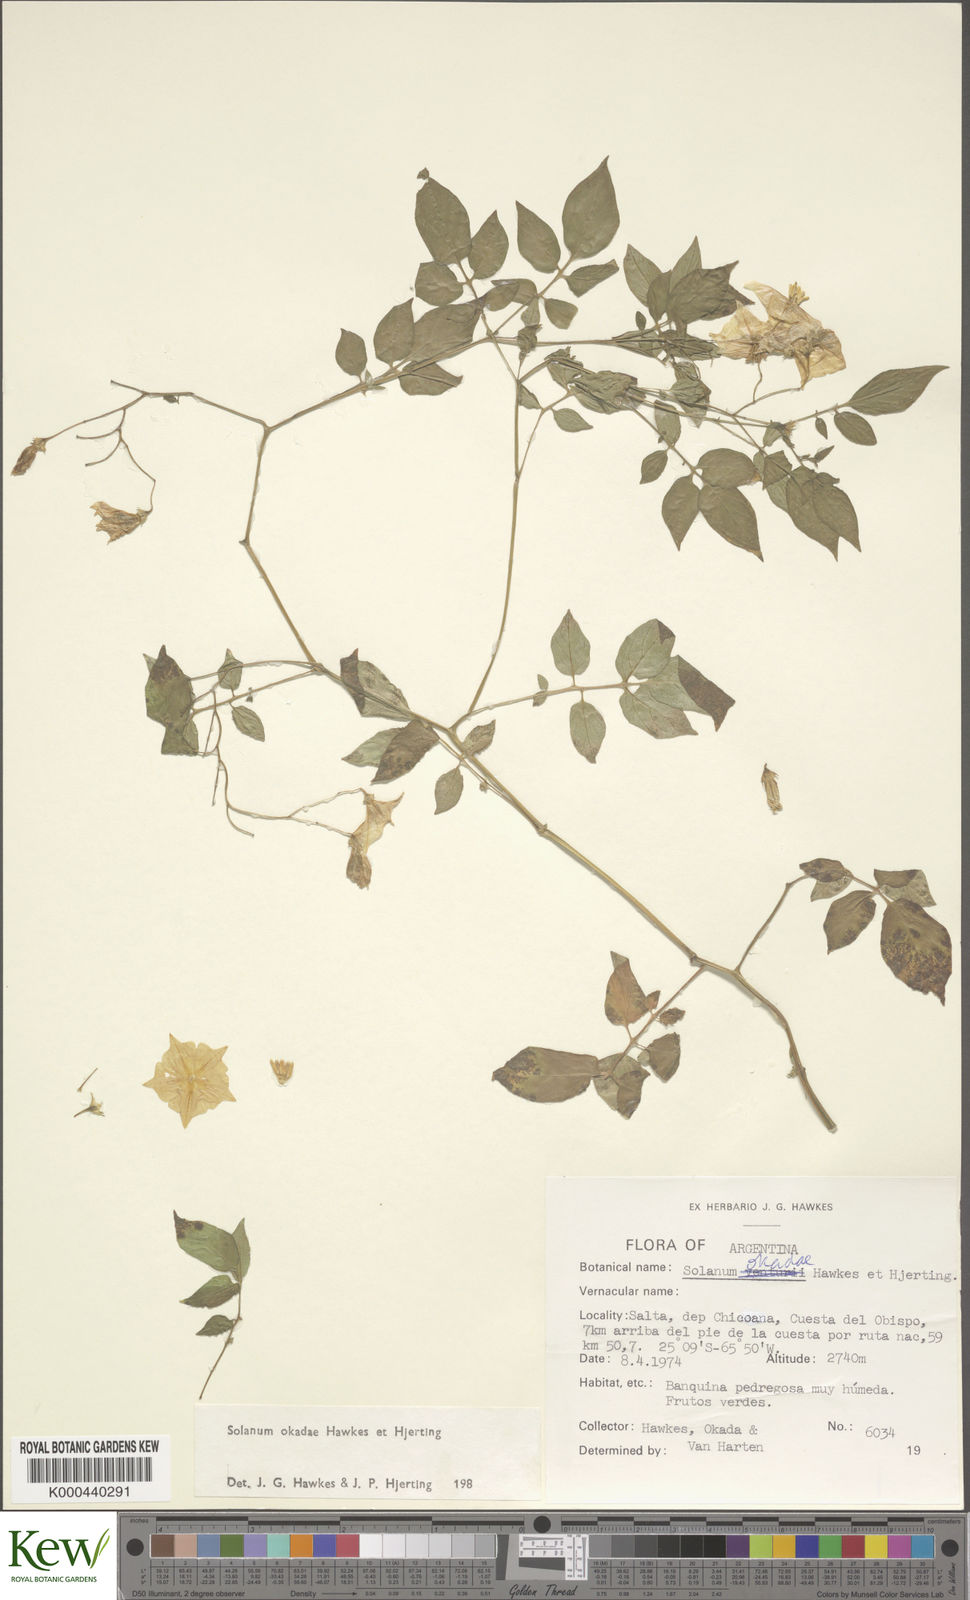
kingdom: Plantae
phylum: Tracheophyta
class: Magnoliopsida
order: Solanales
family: Solanaceae
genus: Solanum
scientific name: Solanum okadae
